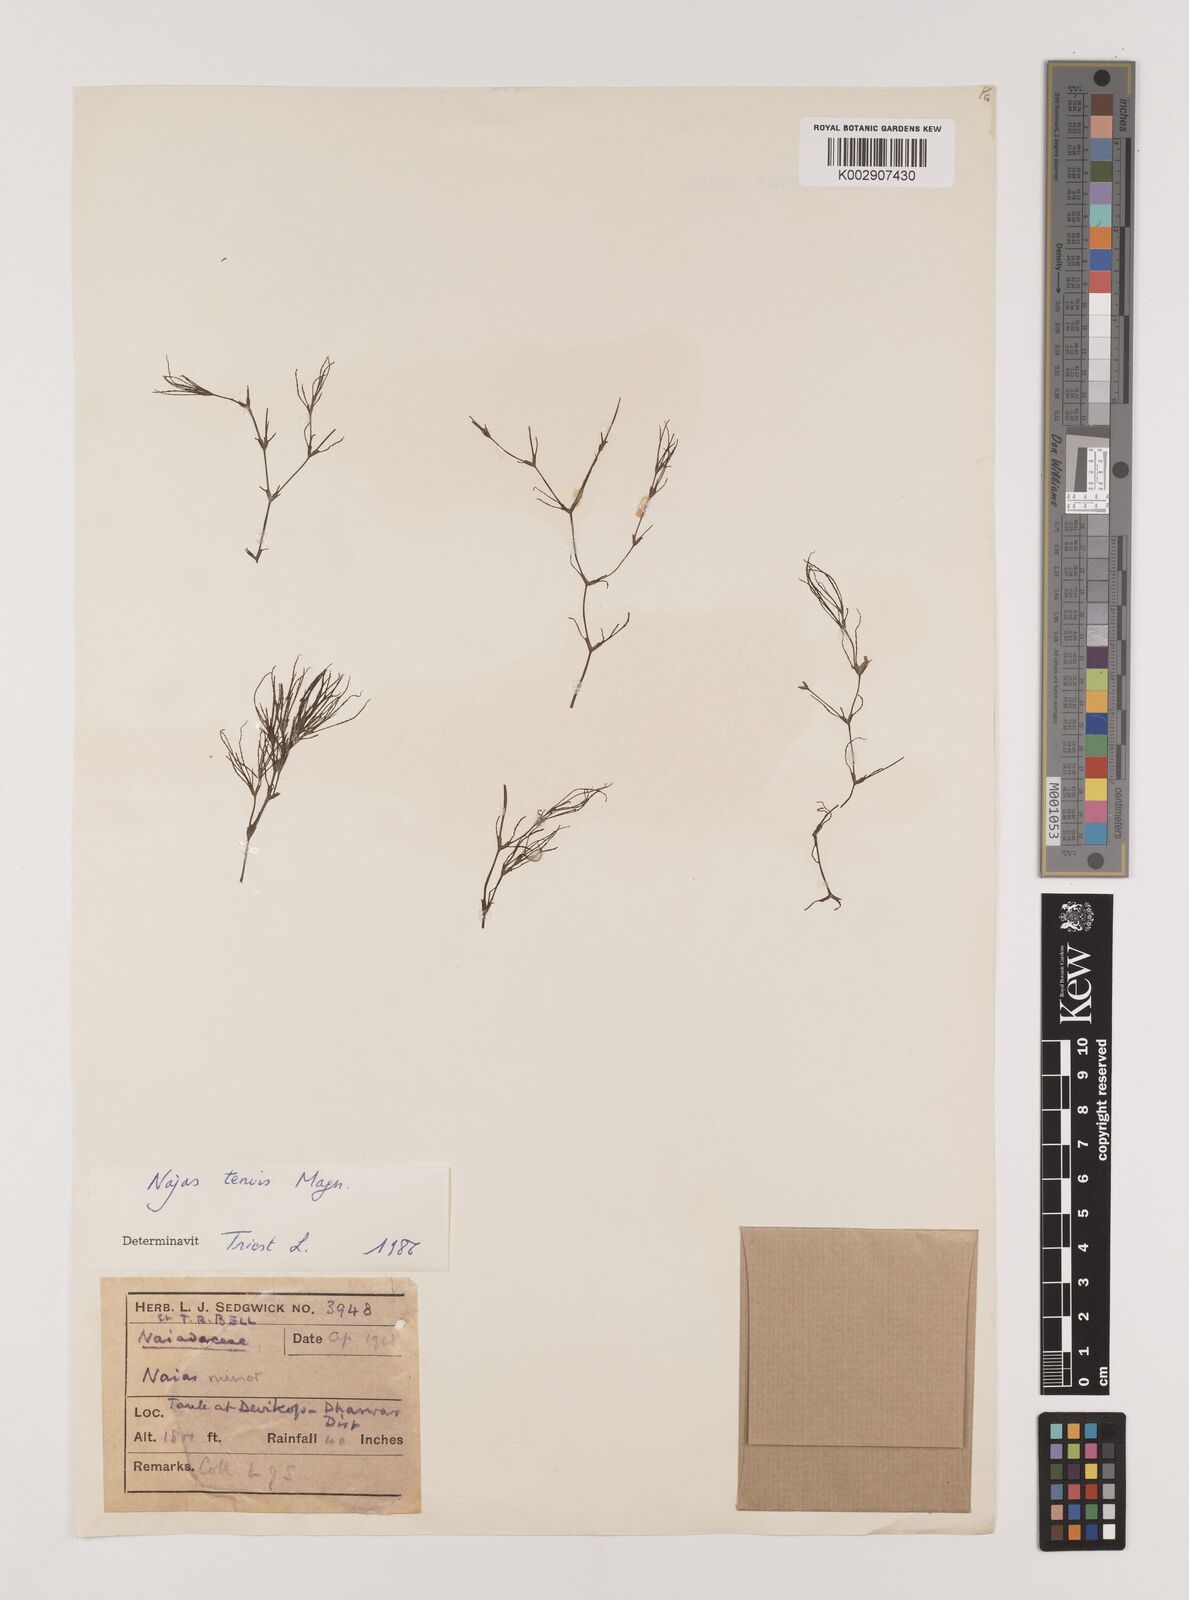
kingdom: Plantae
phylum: Tracheophyta
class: Liliopsida
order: Alismatales
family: Hydrocharitaceae
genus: Najas
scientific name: Najas indica
